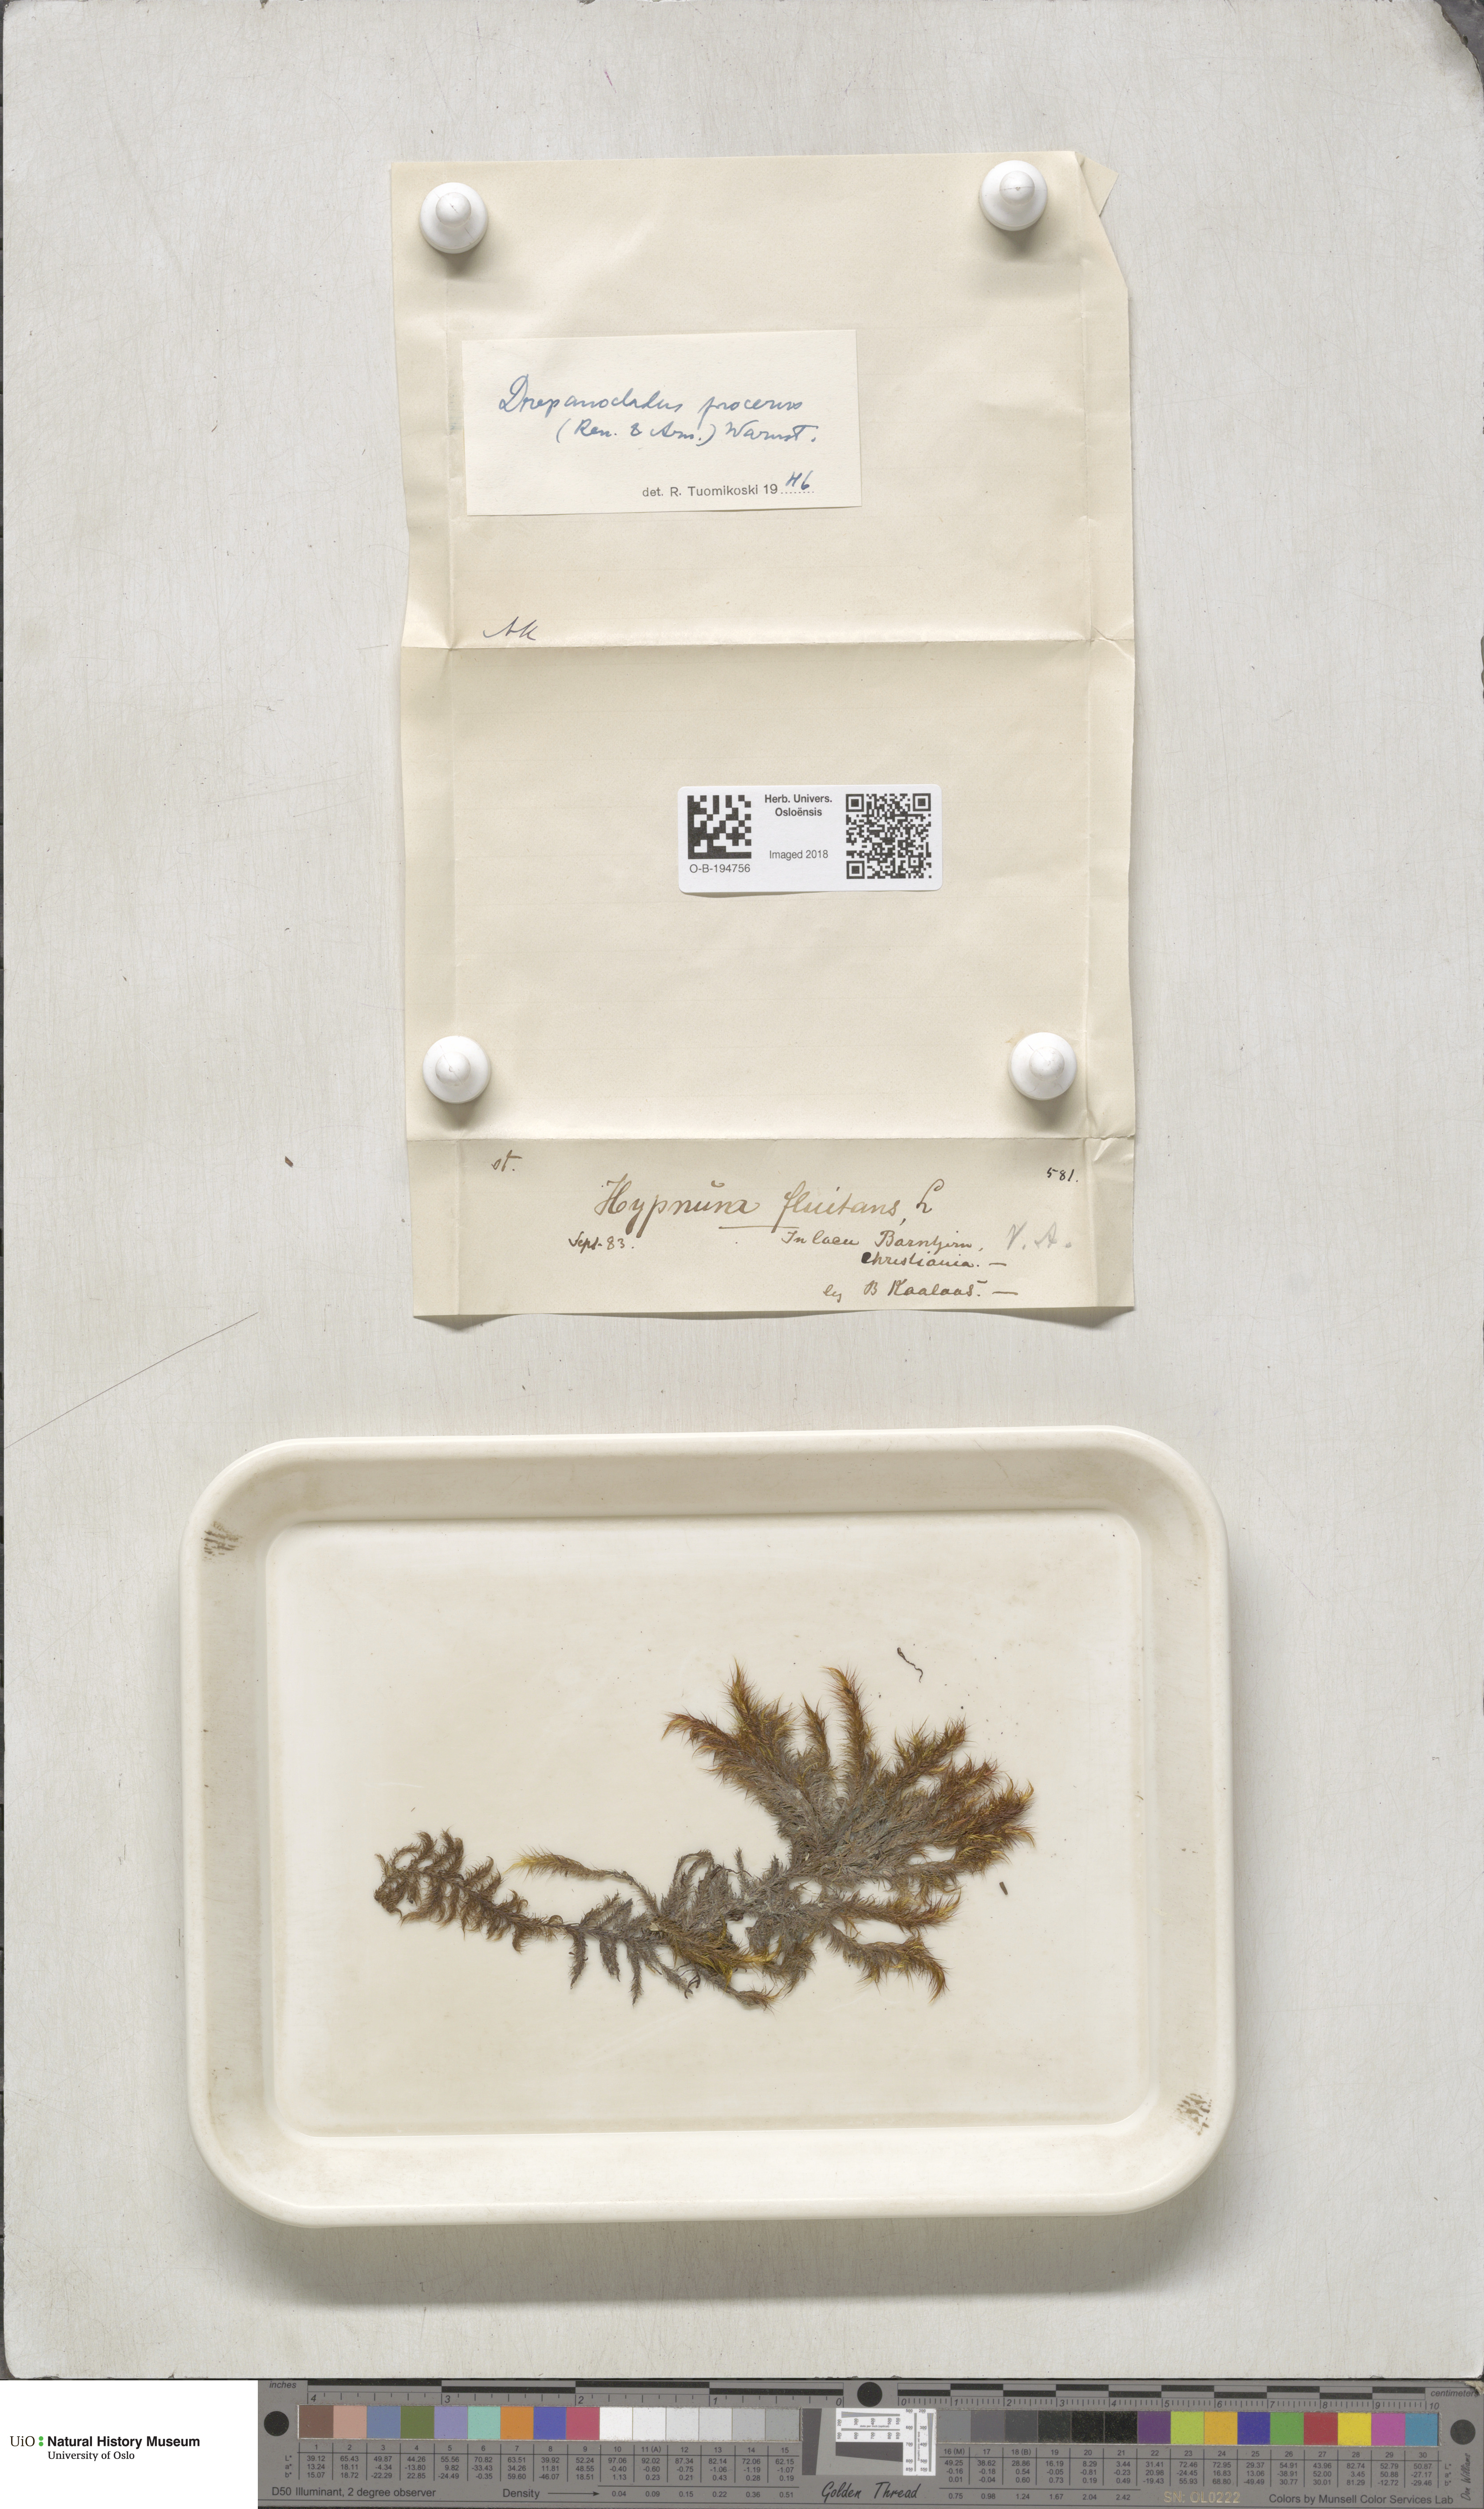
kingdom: Plantae
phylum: Bryophyta
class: Bryopsida
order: Hypnales
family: Calliergonaceae
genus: Sarmentypnum
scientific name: Sarmentypnum procerum
